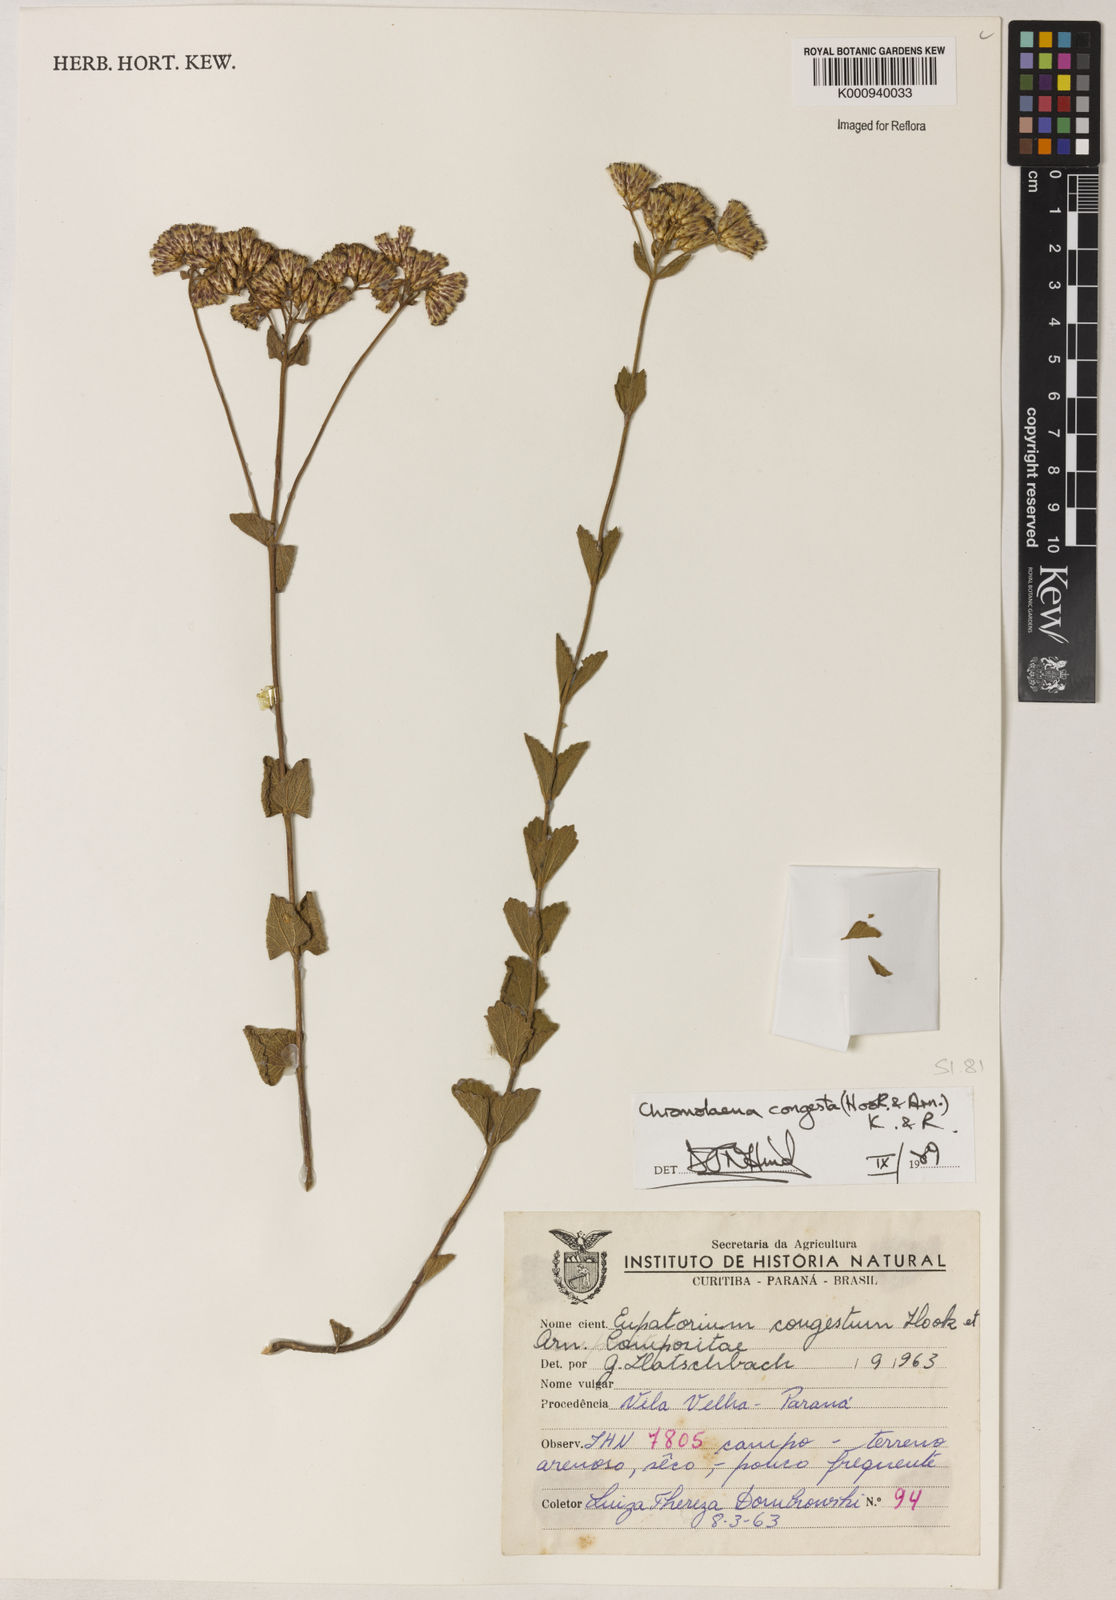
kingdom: Plantae
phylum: Tracheophyta
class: Magnoliopsida
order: Asterales
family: Asteraceae
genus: Chromolaena
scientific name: Chromolaena congesta
